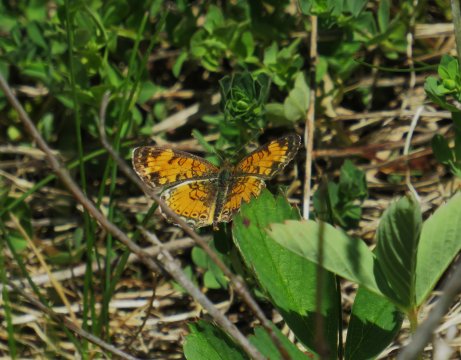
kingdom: Animalia
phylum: Arthropoda
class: Insecta
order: Lepidoptera
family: Nymphalidae
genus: Phyciodes
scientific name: Phyciodes tharos
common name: Northern Crescent
